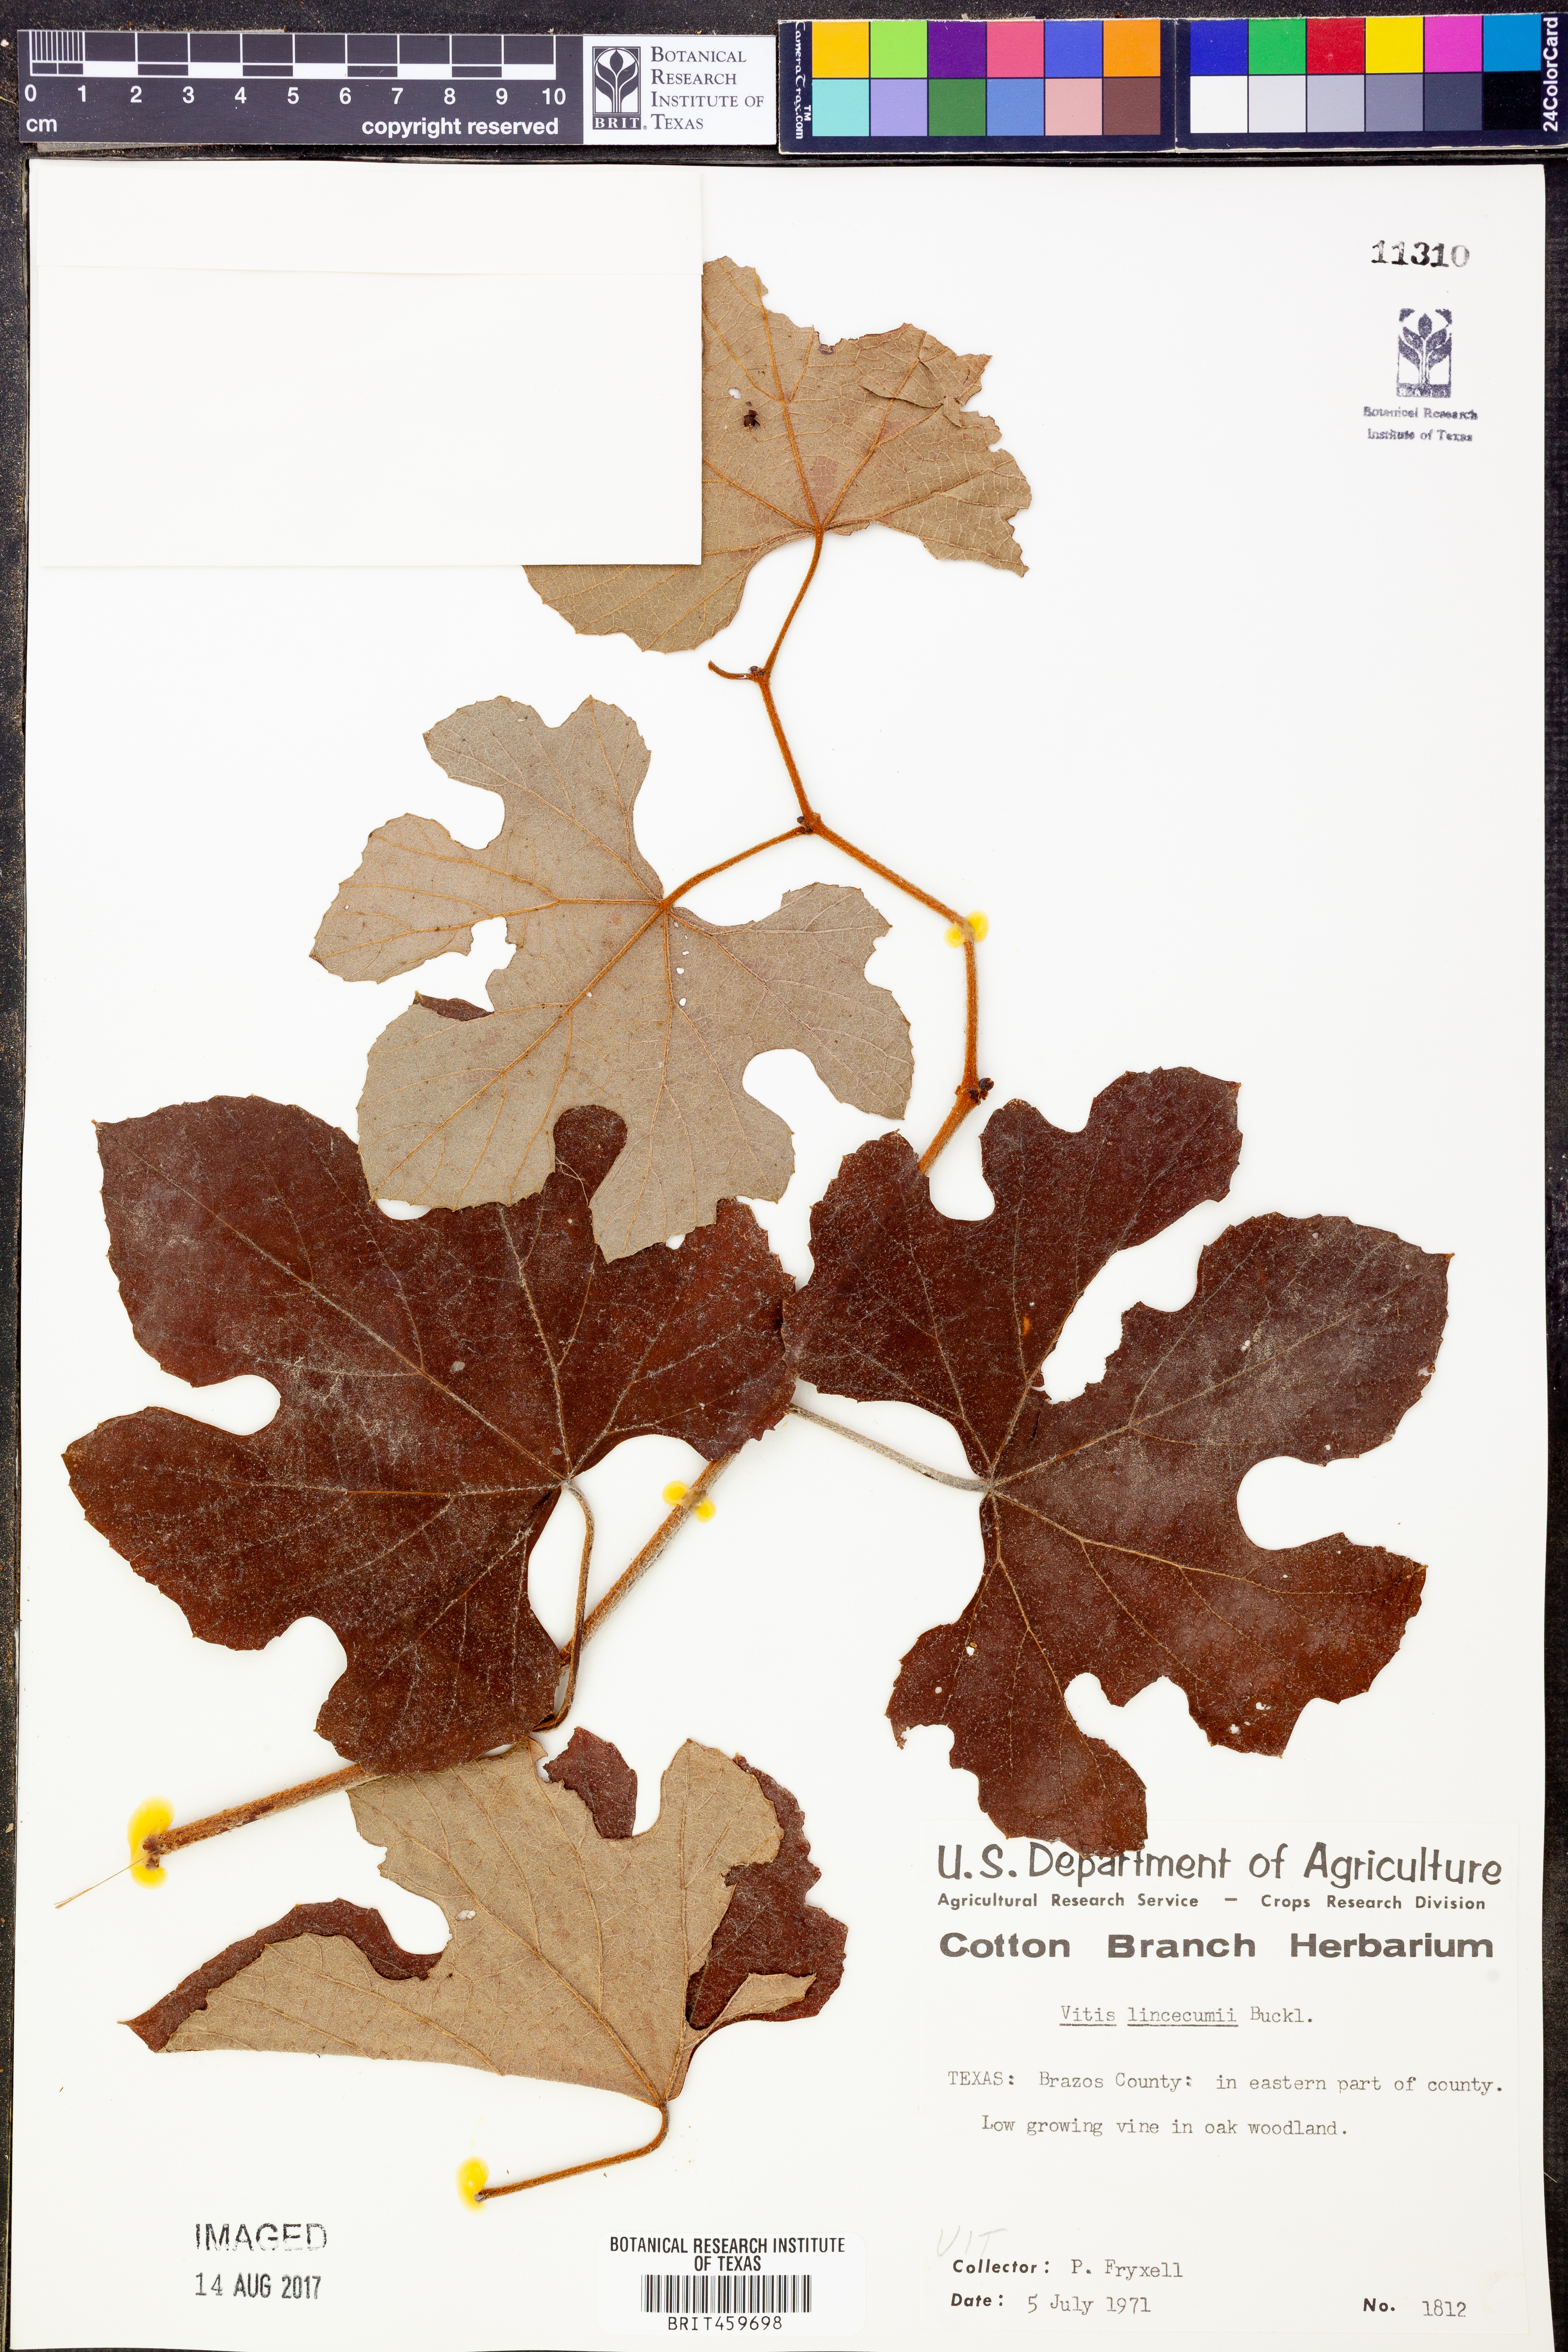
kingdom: Plantae
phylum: Tracheophyta
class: Magnoliopsida
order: Vitales
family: Vitaceae
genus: Vitis
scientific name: Vitis aestivalis
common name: Pigeon grape
